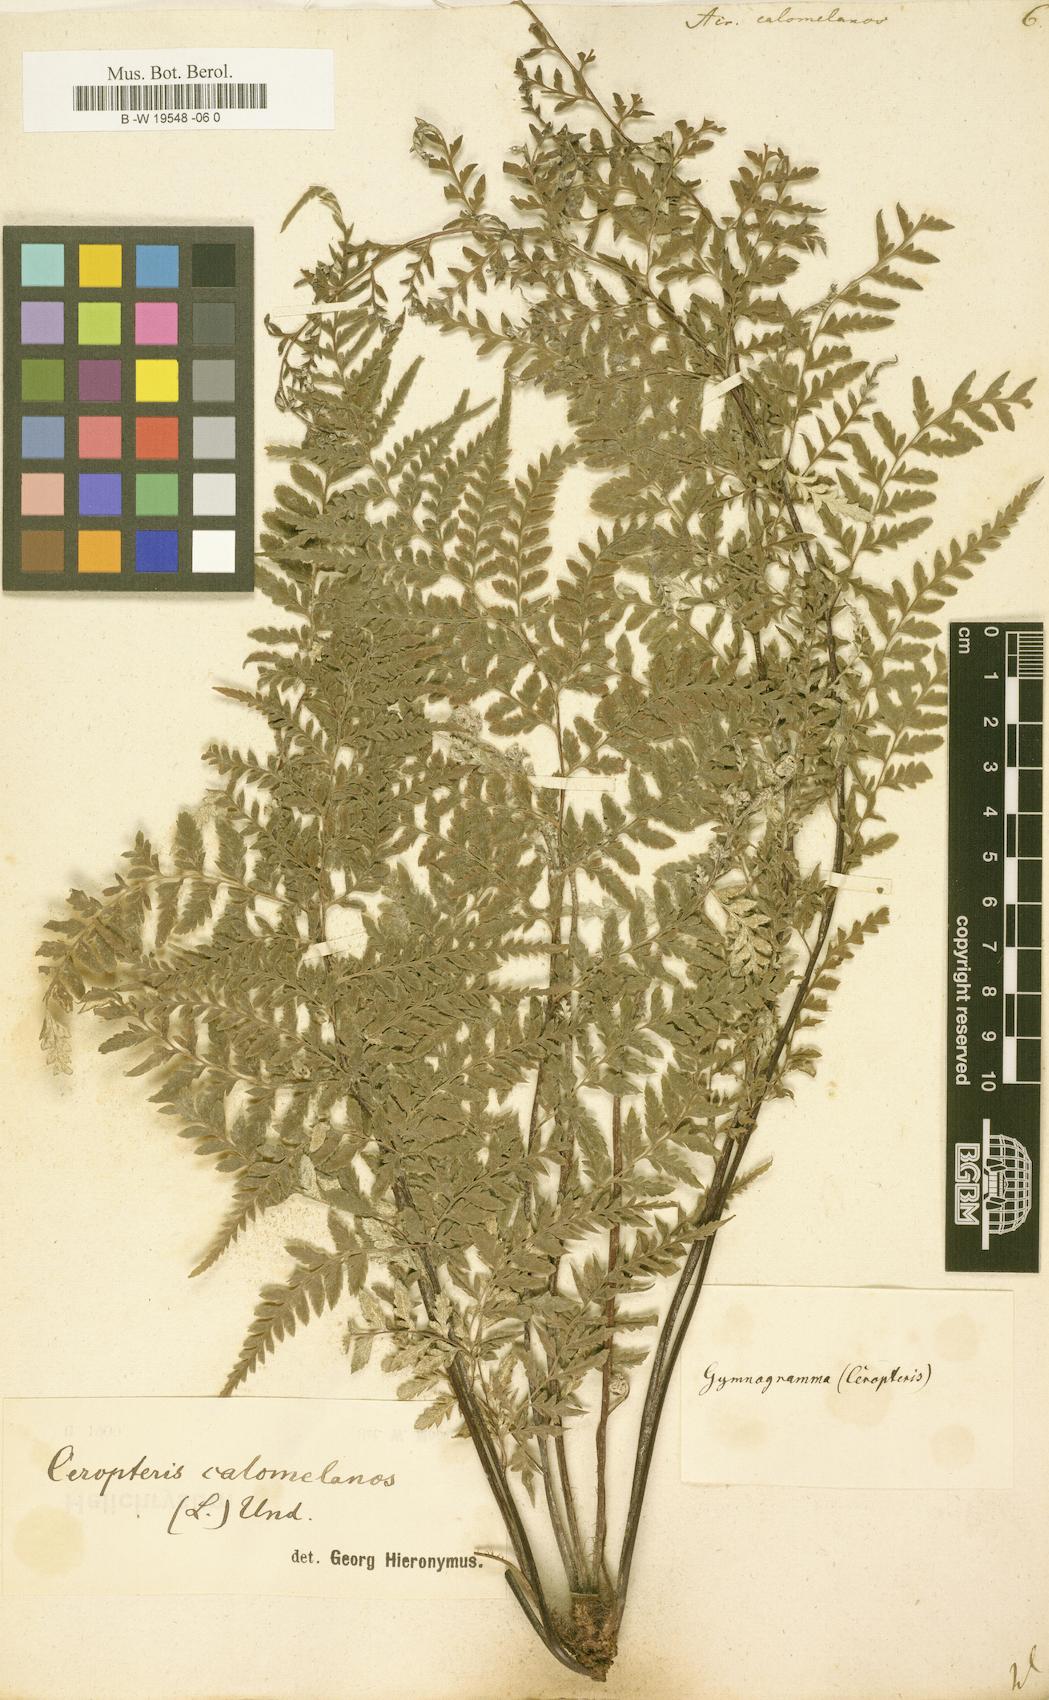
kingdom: Plantae
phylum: Tracheophyta
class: Polypodiopsida
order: Polypodiales
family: Pteridaceae
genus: Pityrogramma
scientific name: Pityrogramma calomelanos
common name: Dixie silverback fern
